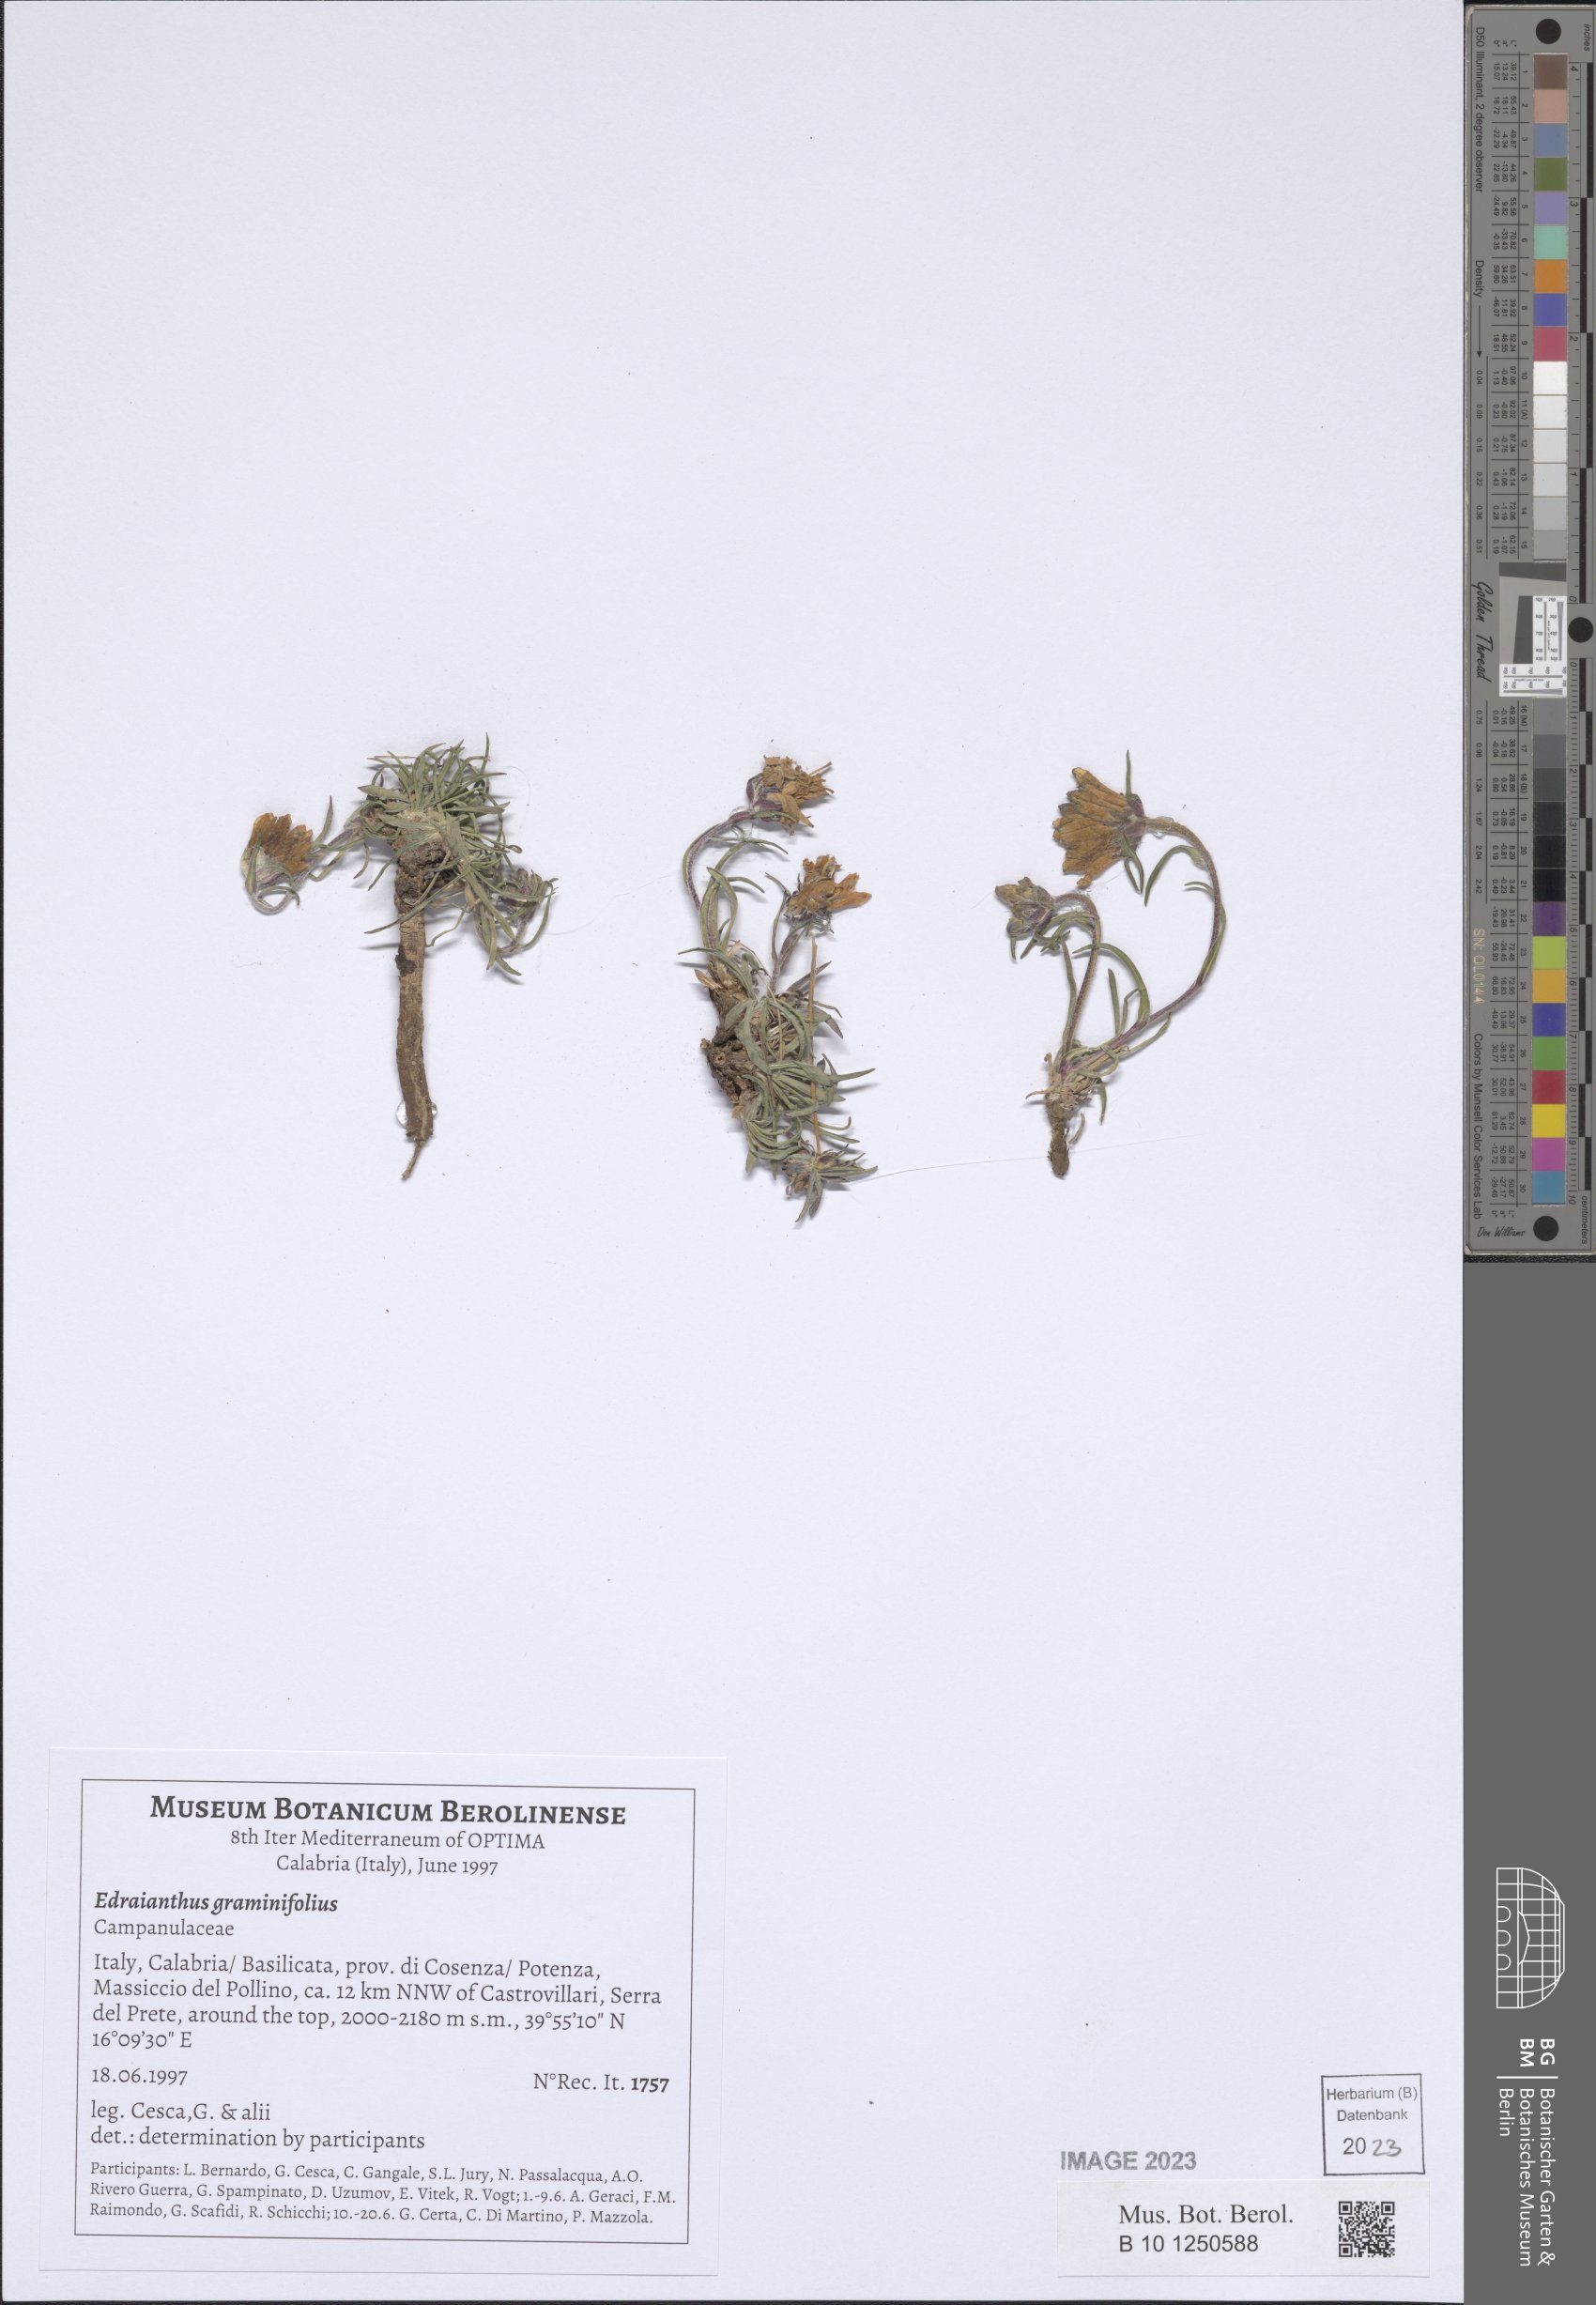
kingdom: Plantae
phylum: Tracheophyta
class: Magnoliopsida
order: Asterales
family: Campanulaceae
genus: Edraianthus
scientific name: Edraianthus graminifolius
